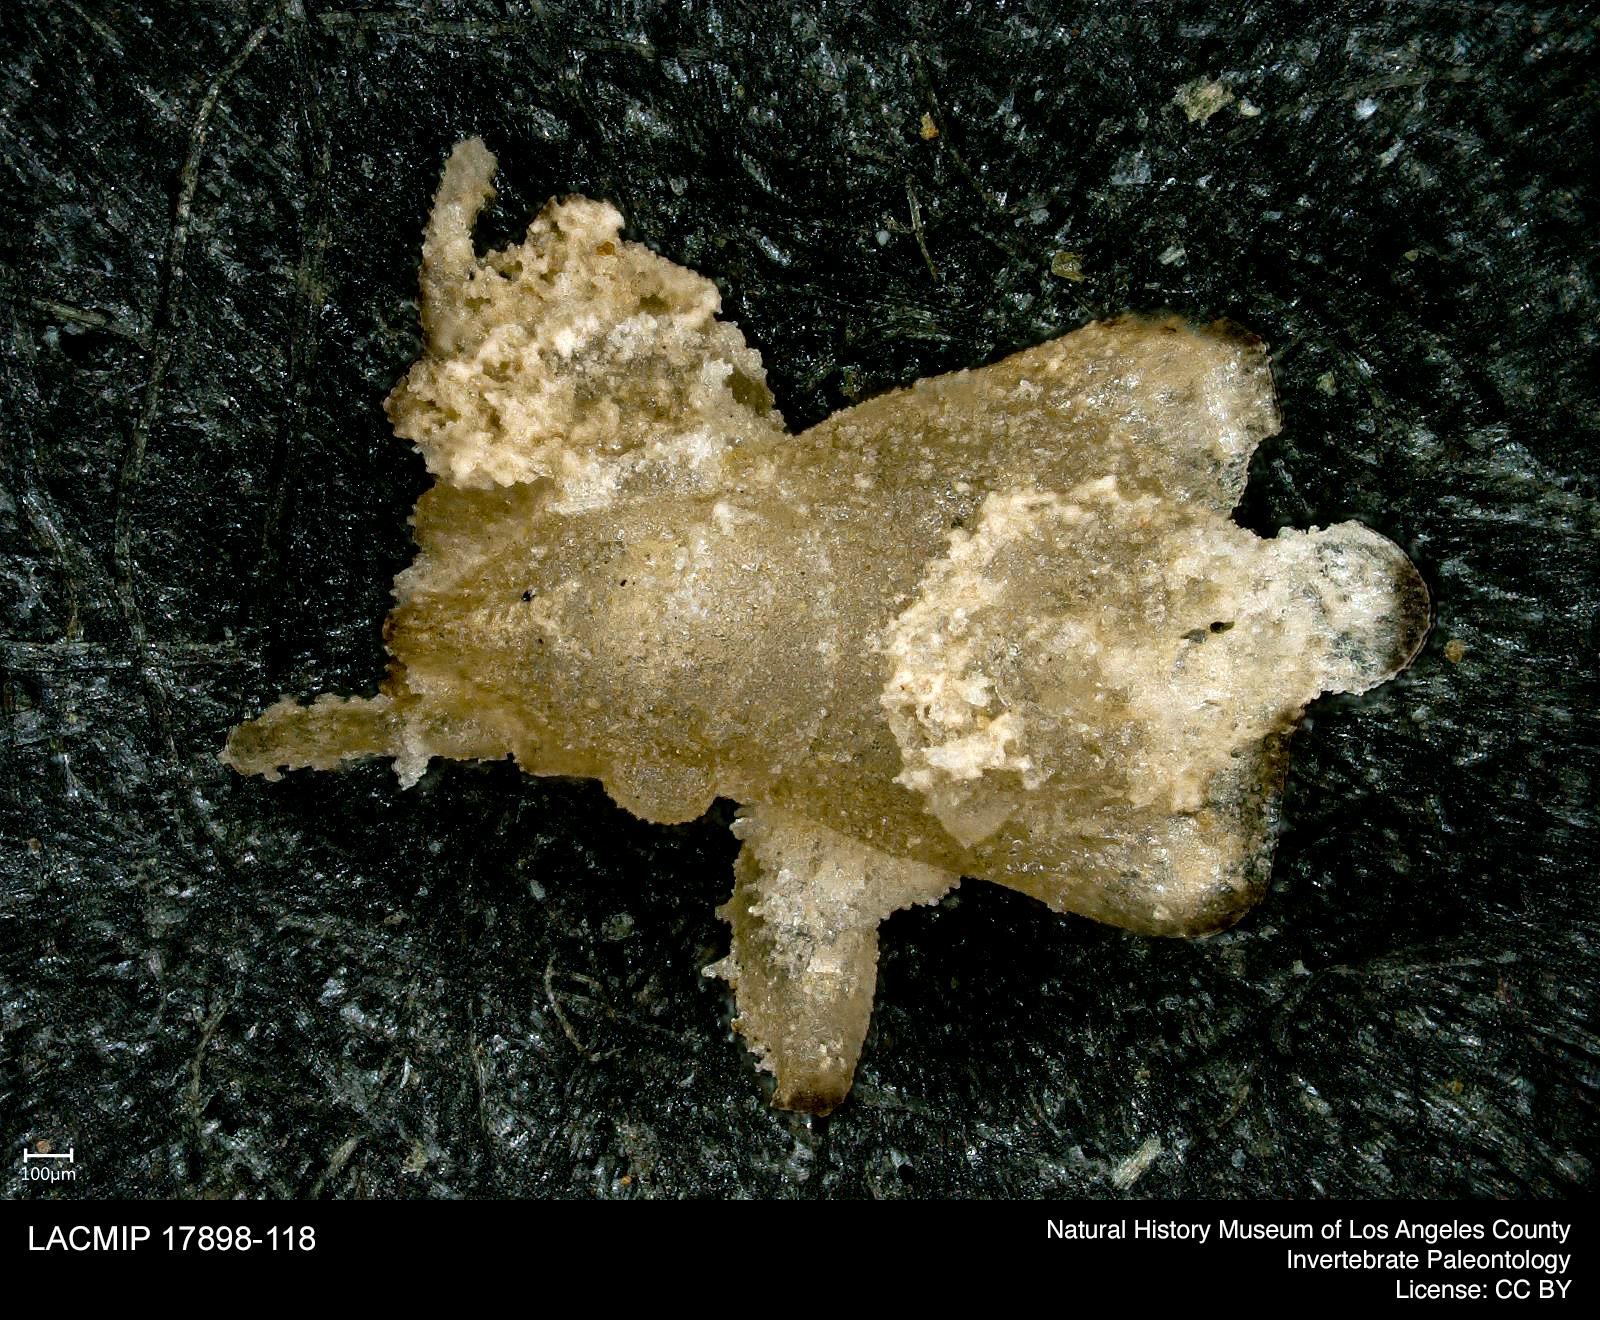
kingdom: Animalia
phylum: Arthropoda
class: Insecta
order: Hemiptera
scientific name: Hemiptera
